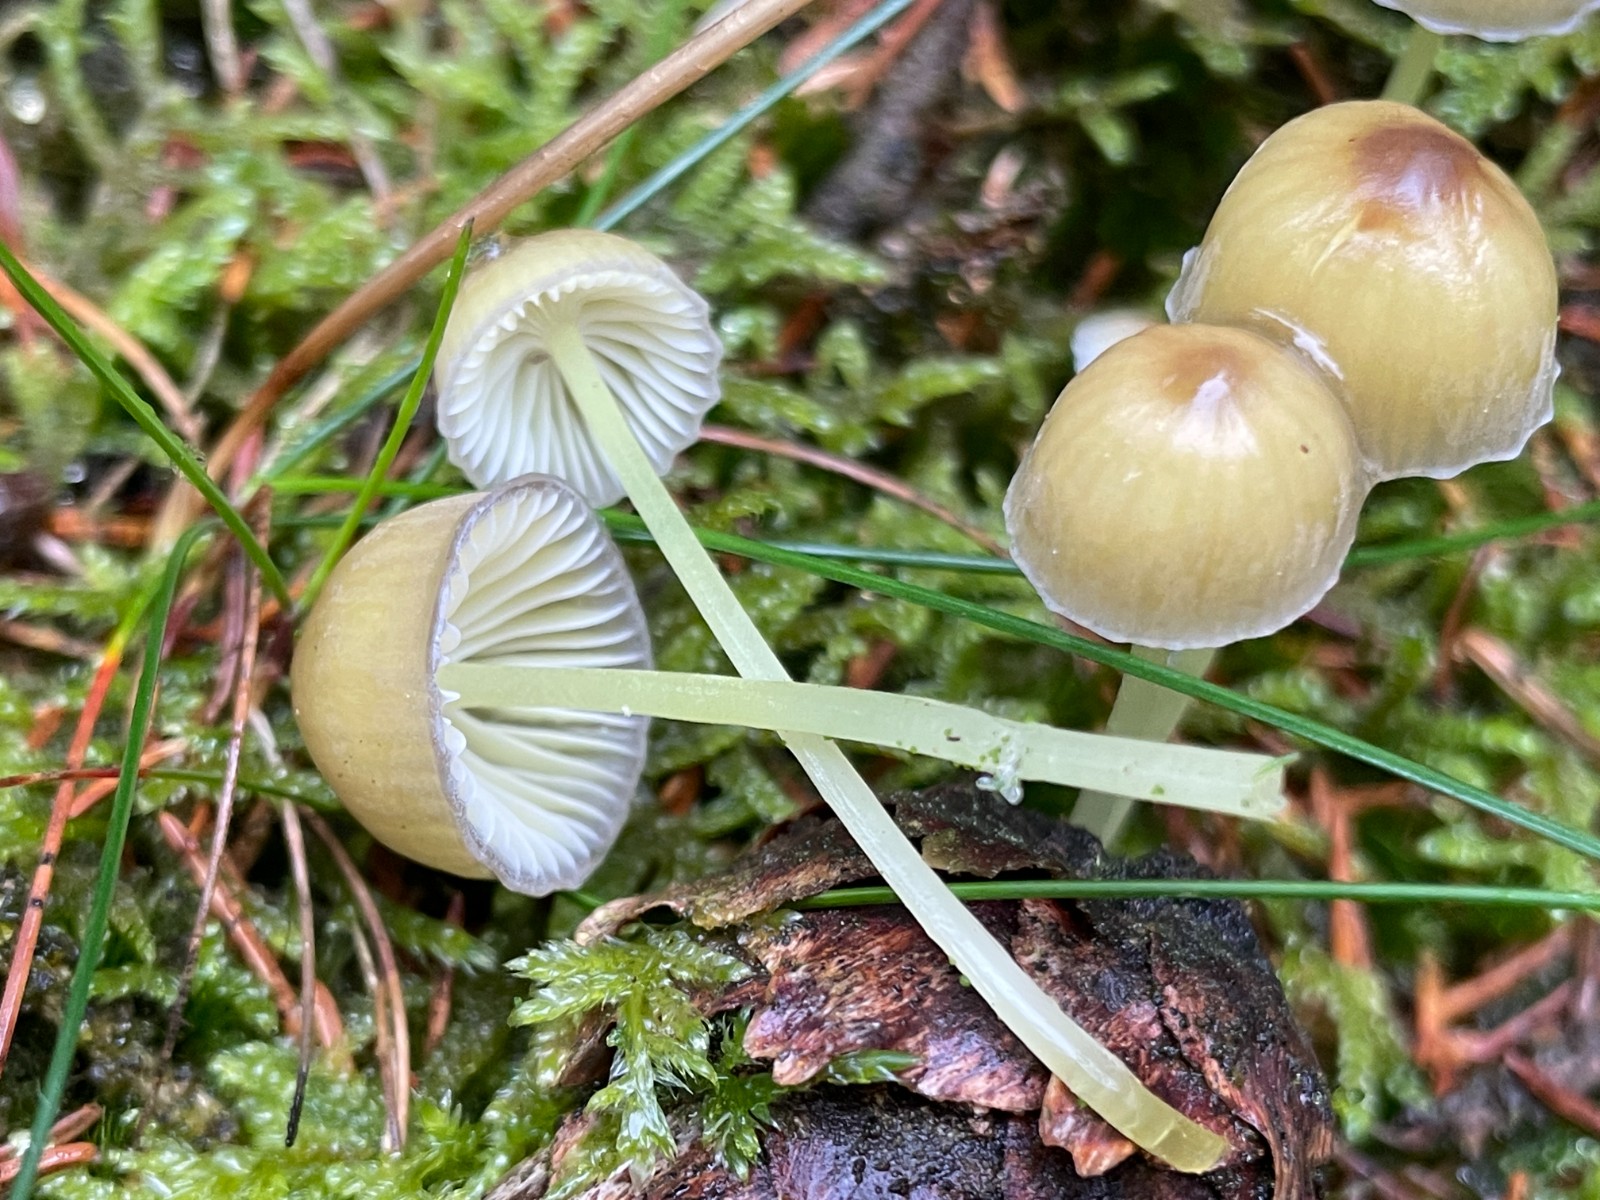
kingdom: Fungi
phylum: Basidiomycota
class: Agaricomycetes
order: Agaricales
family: Mycenaceae
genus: Mycena
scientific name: Mycena epipterygia
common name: gulstokket huesvamp
